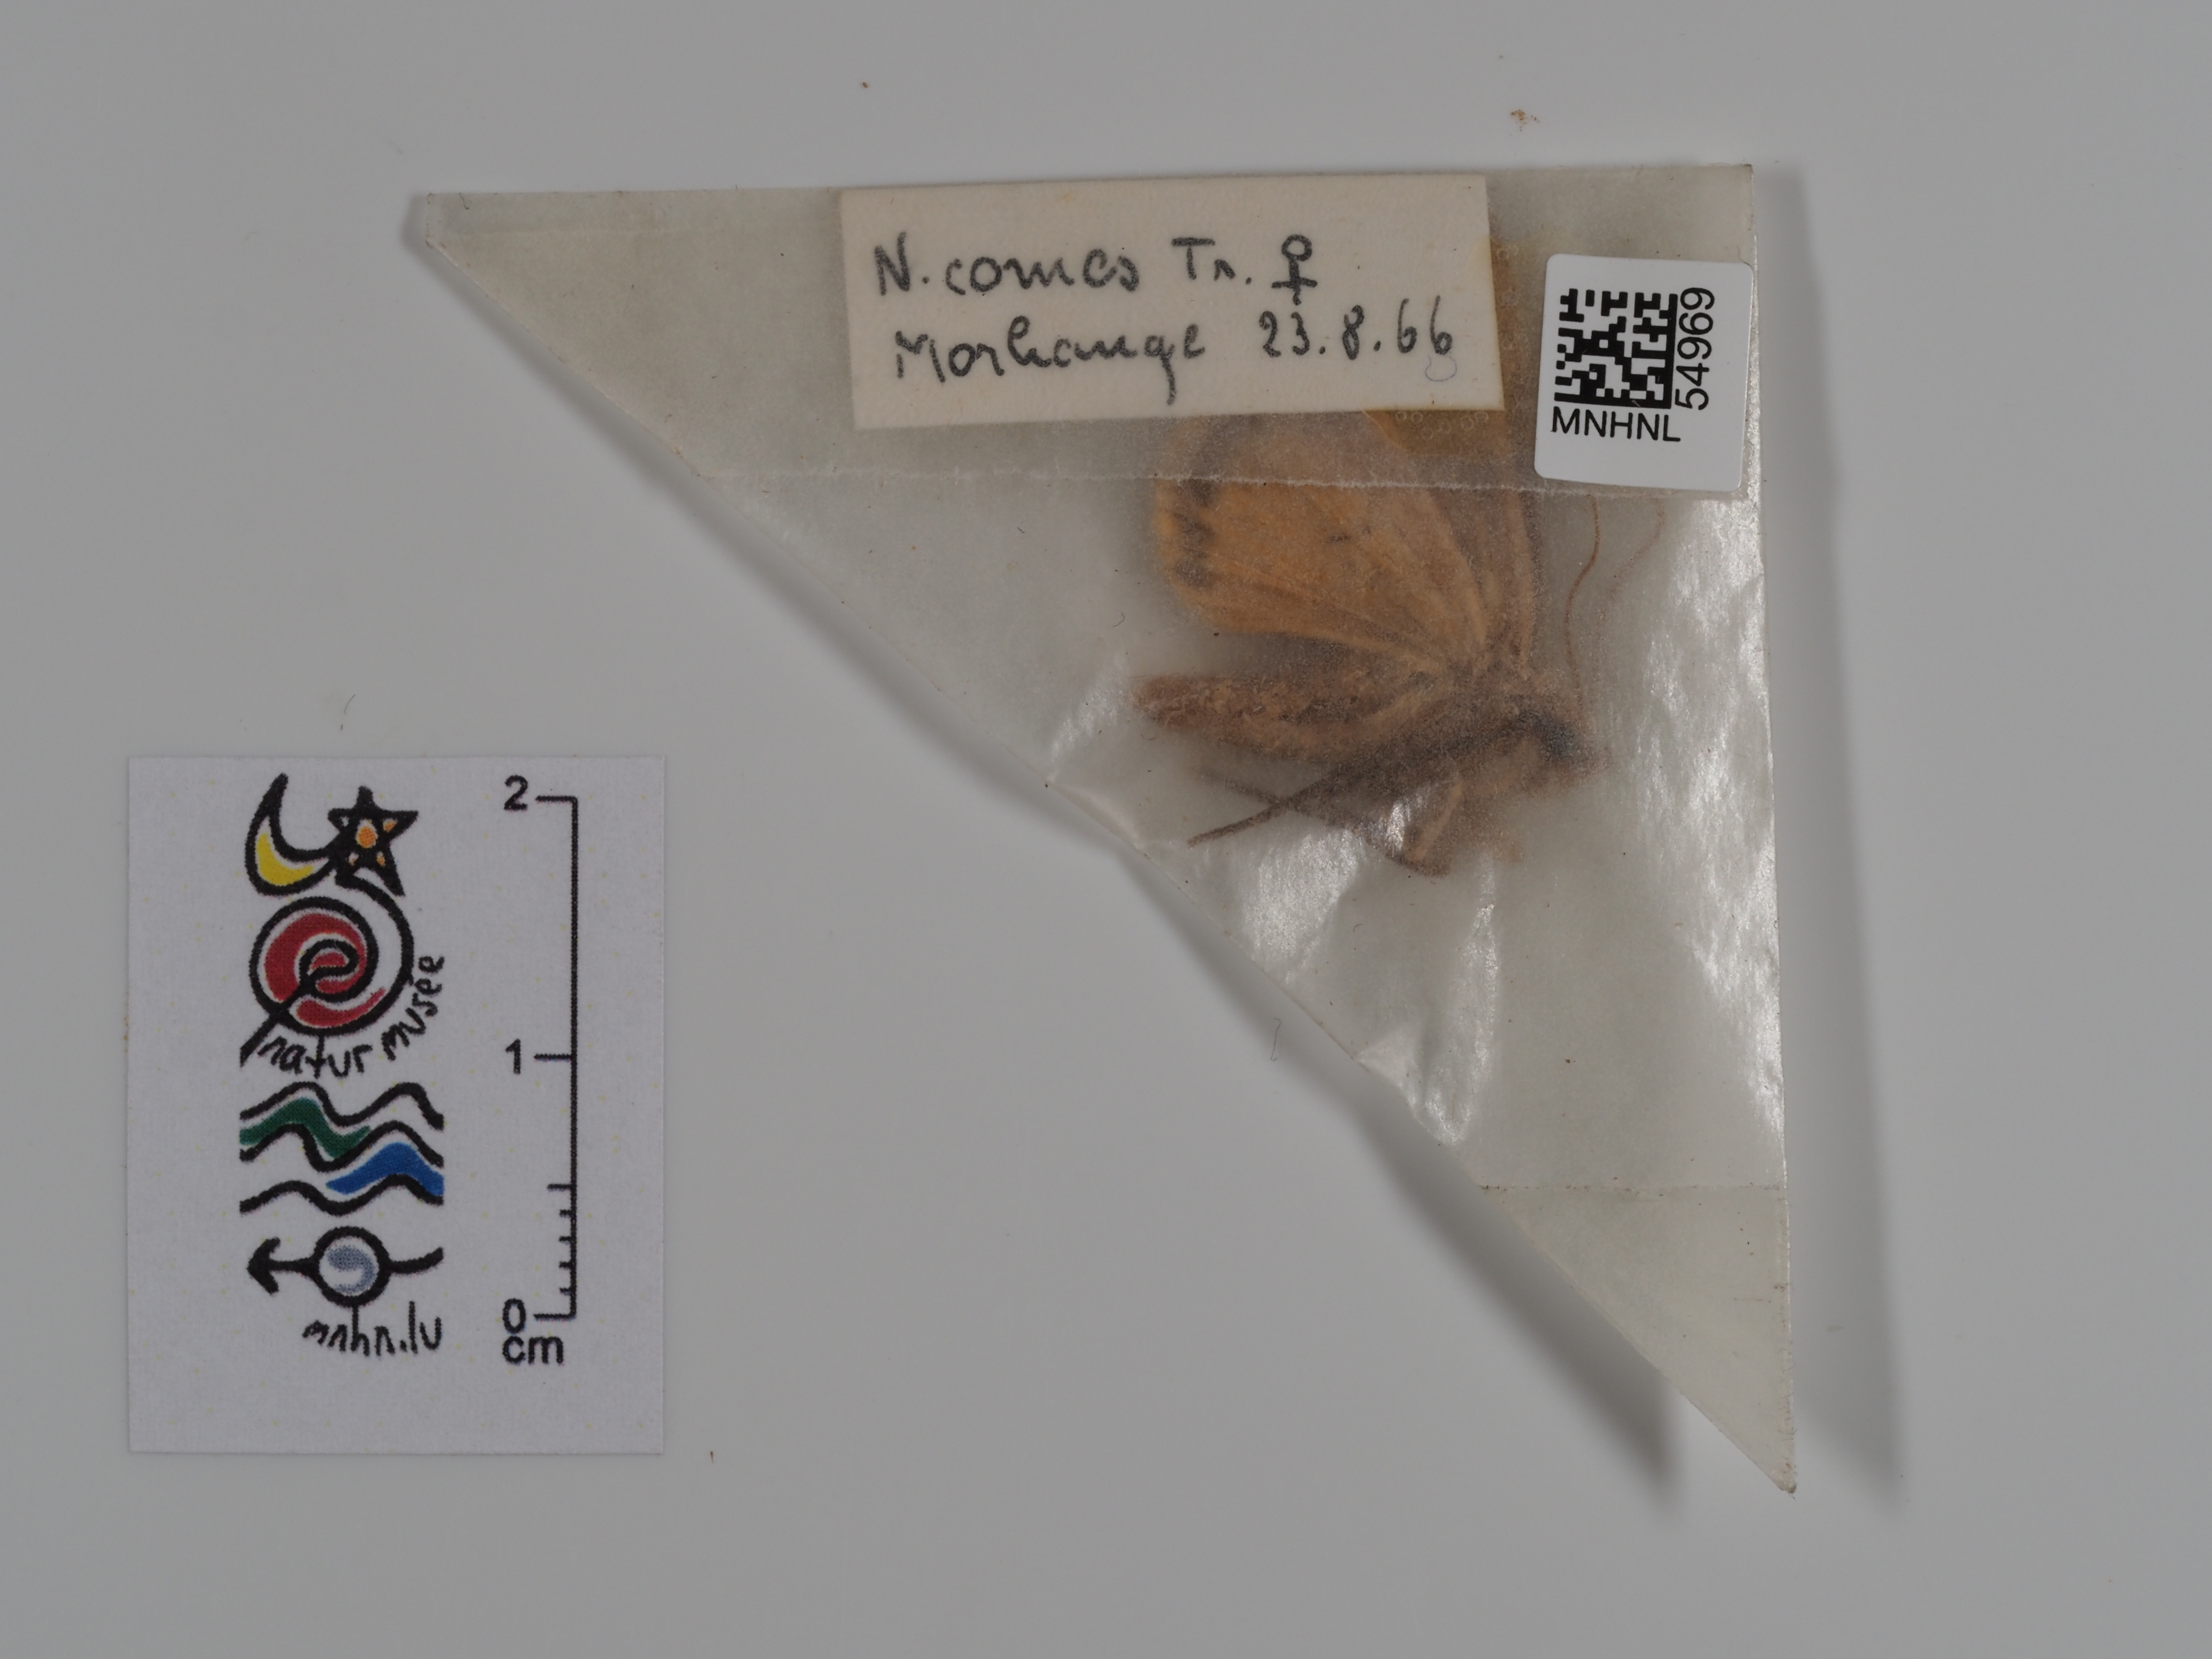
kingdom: Animalia
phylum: Arthropoda
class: Insecta
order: Lepidoptera
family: Noctuidae
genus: Noctua
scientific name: Noctua comes
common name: Lesser yellow underwing
